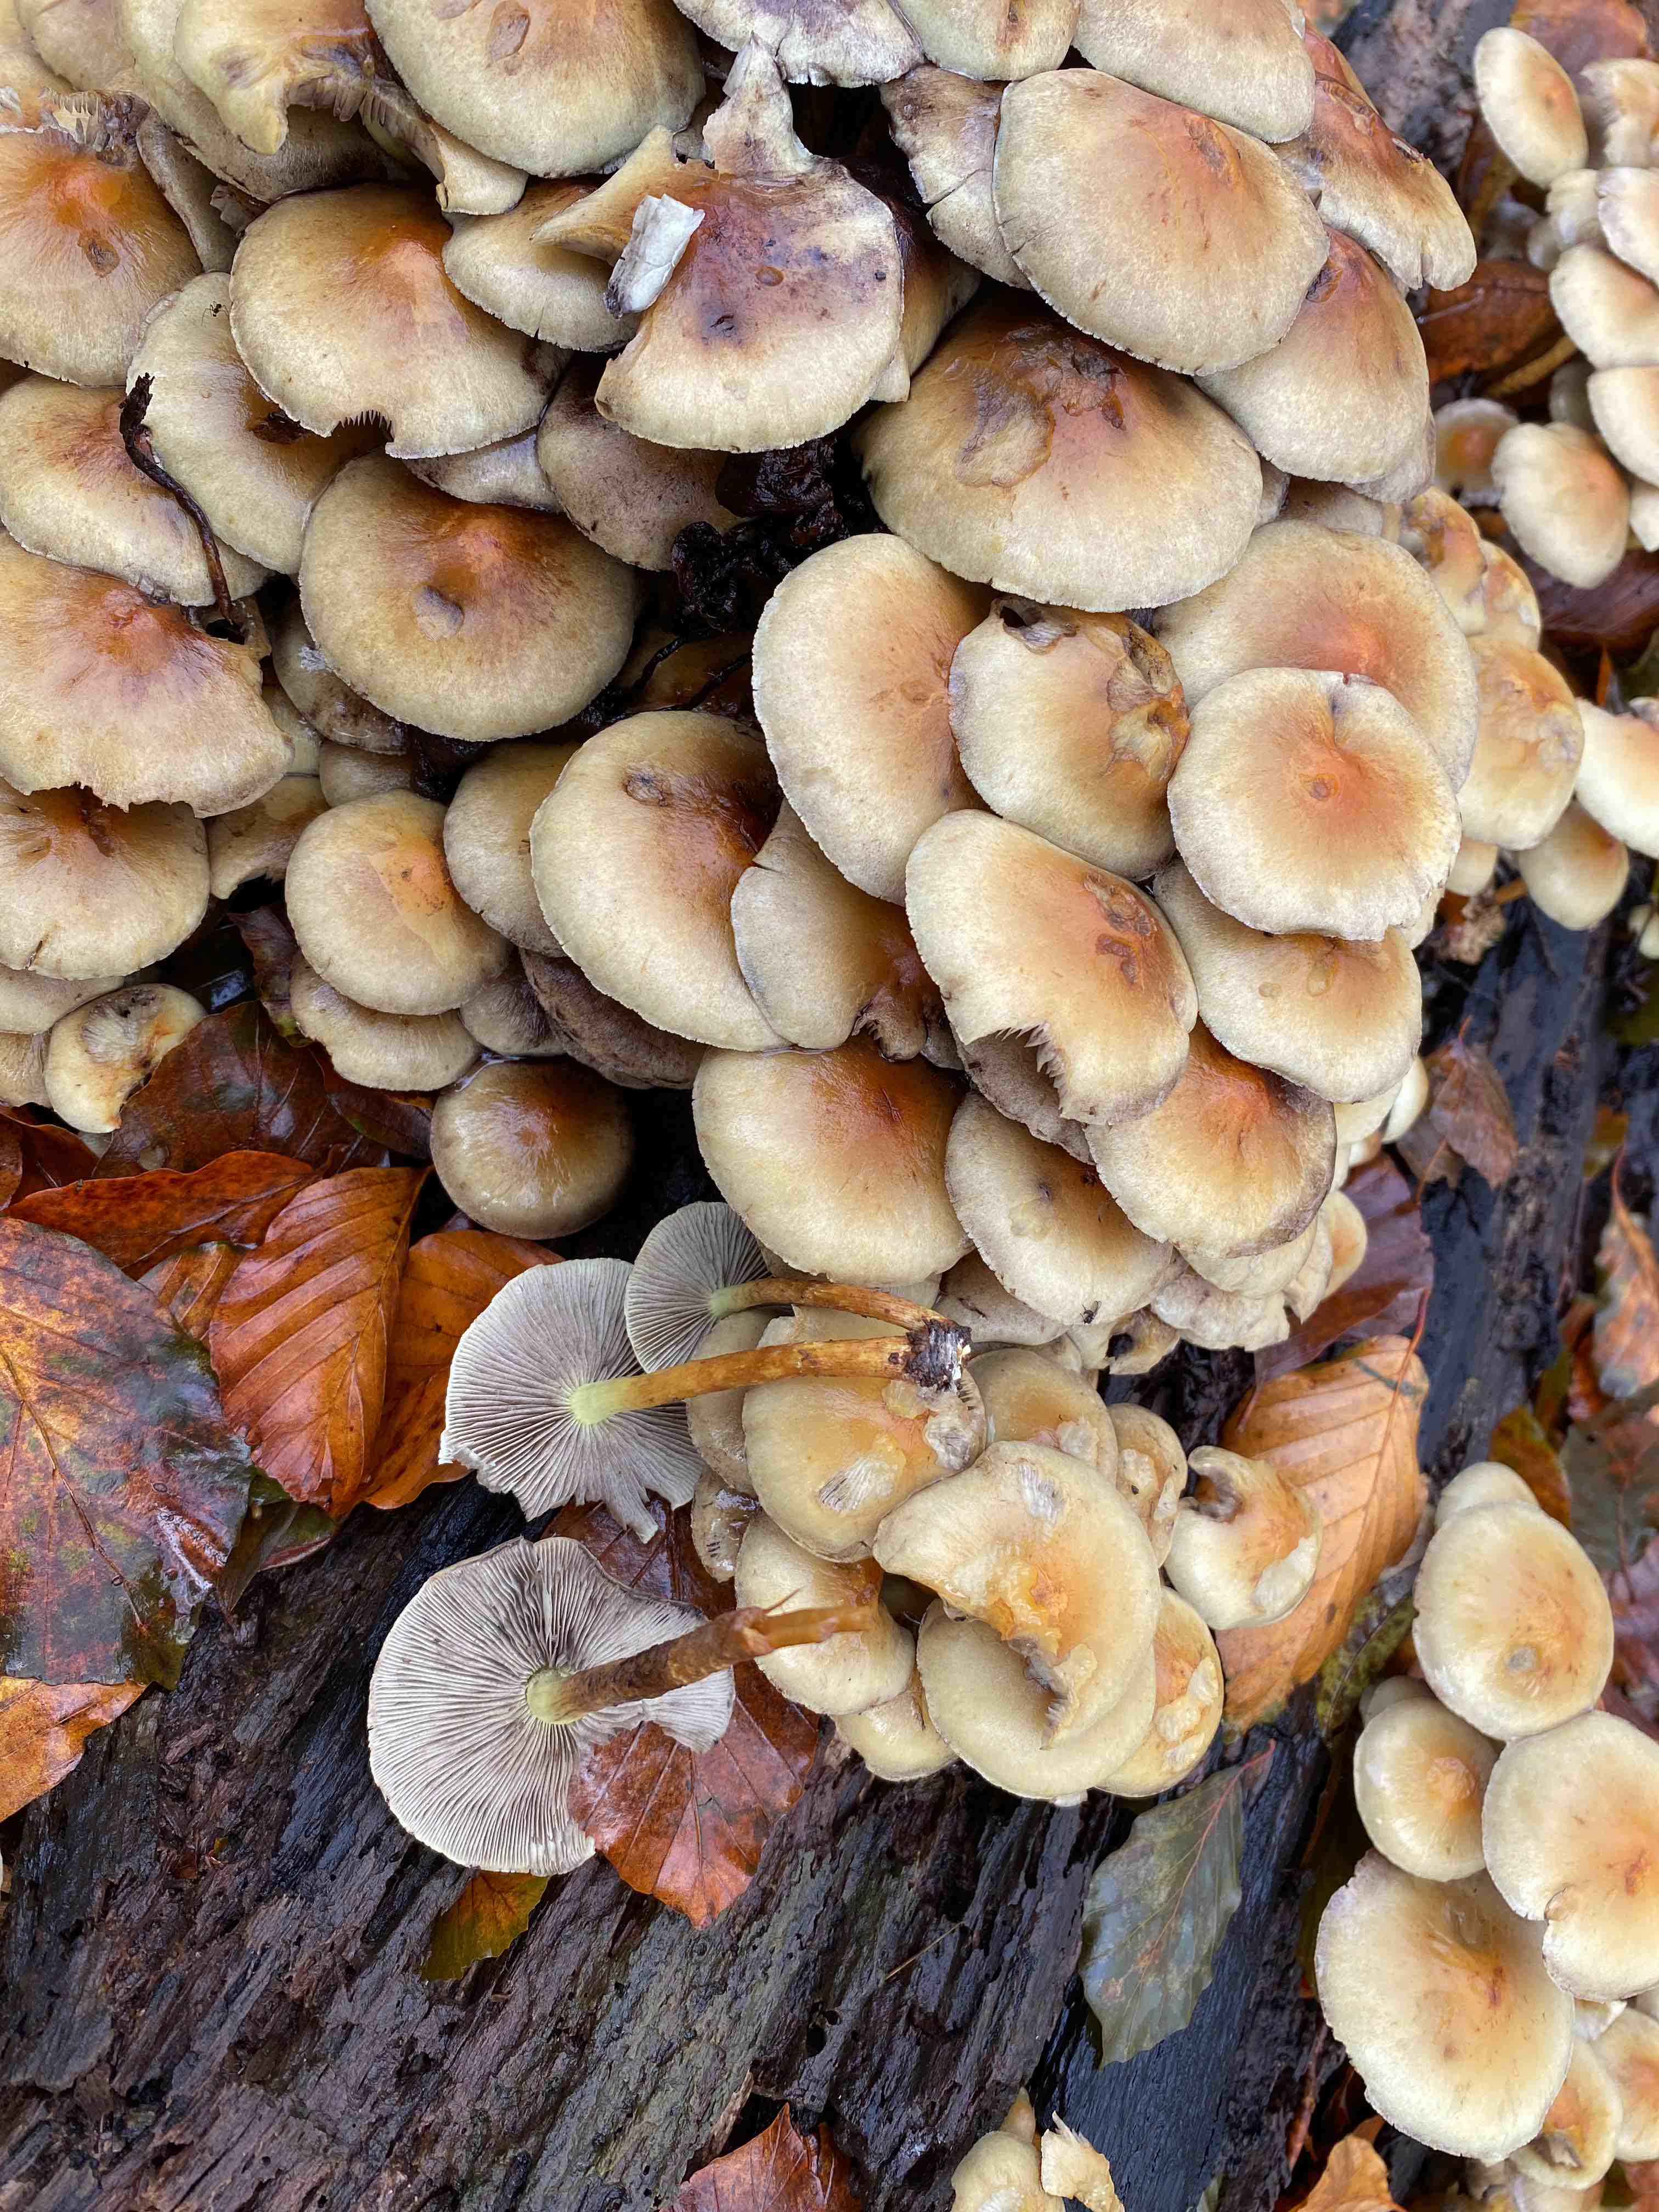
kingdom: Fungi
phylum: Basidiomycota
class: Agaricomycetes
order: Agaricales
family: Strophariaceae
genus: Hypholoma
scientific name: Hypholoma fasciculare
